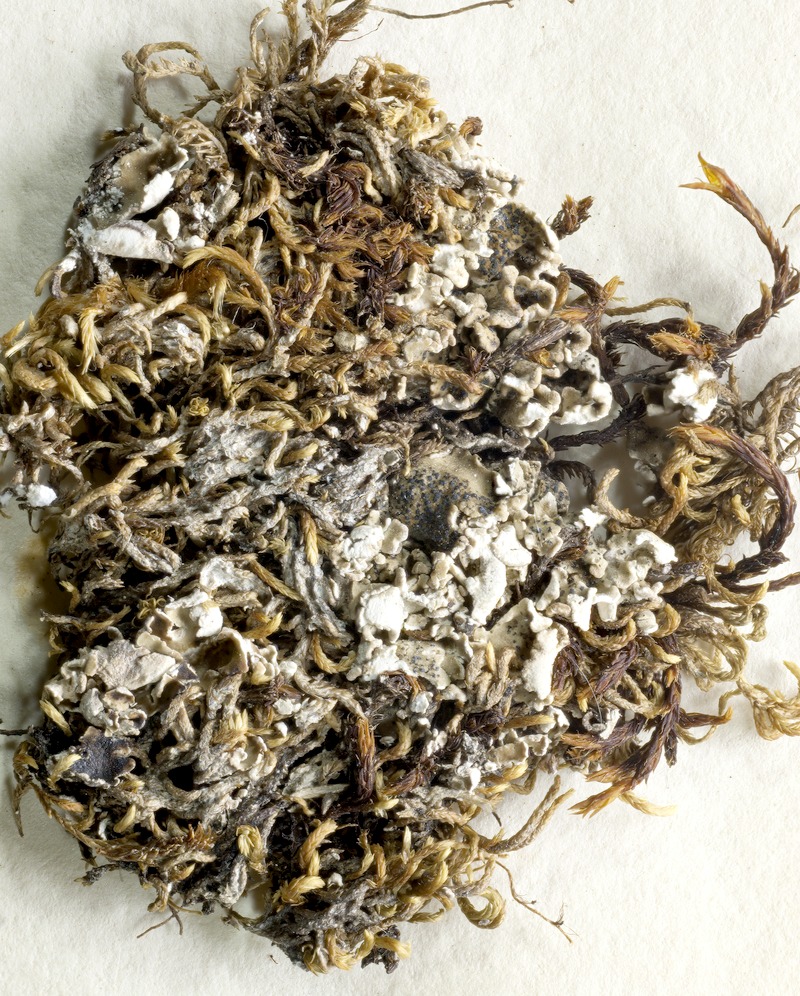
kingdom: Fungi
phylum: Ascomycota
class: Lecanoromycetes
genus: Bachmanniomyces
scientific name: Bachmanniomyces punctum
